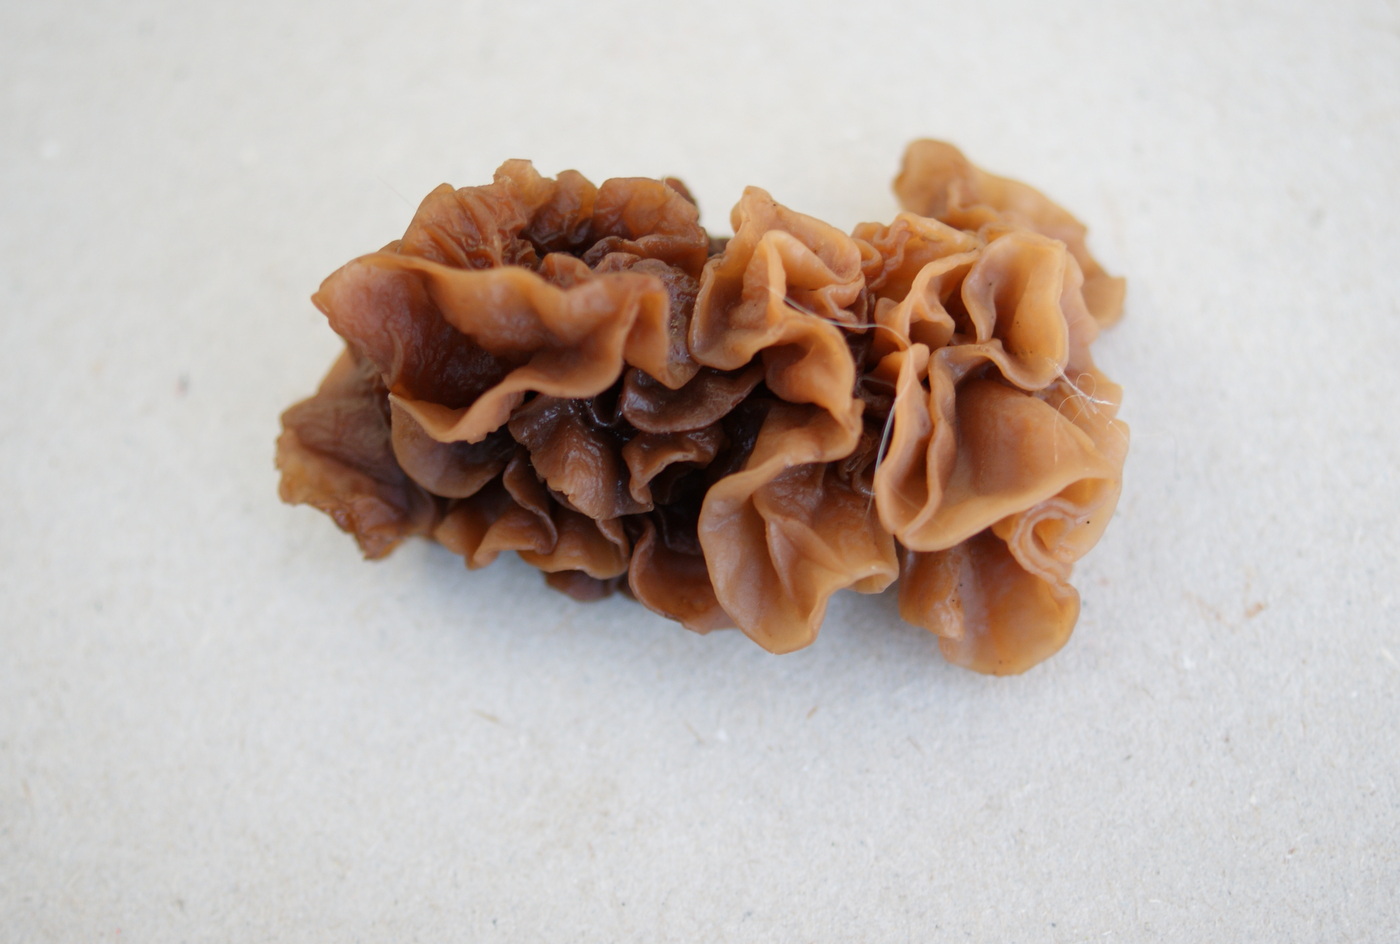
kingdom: Fungi
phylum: Basidiomycota
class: Tremellomycetes
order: Tremellales
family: Tremellaceae
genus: Phaeotremella
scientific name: Phaeotremella frondosa
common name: kæmpe-bævresvamp
